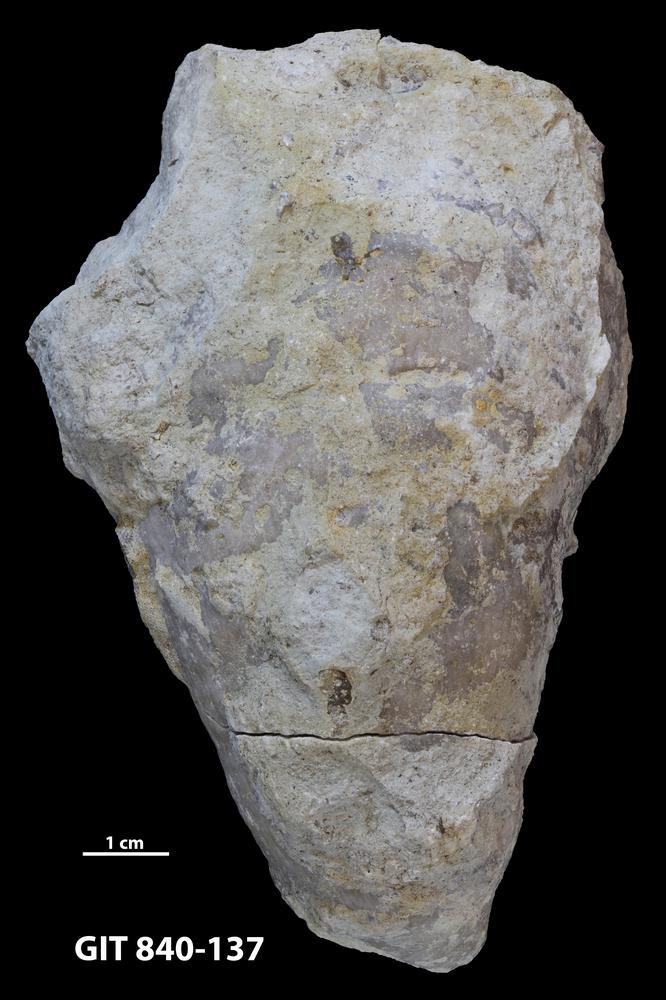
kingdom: Animalia
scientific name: Animalia
